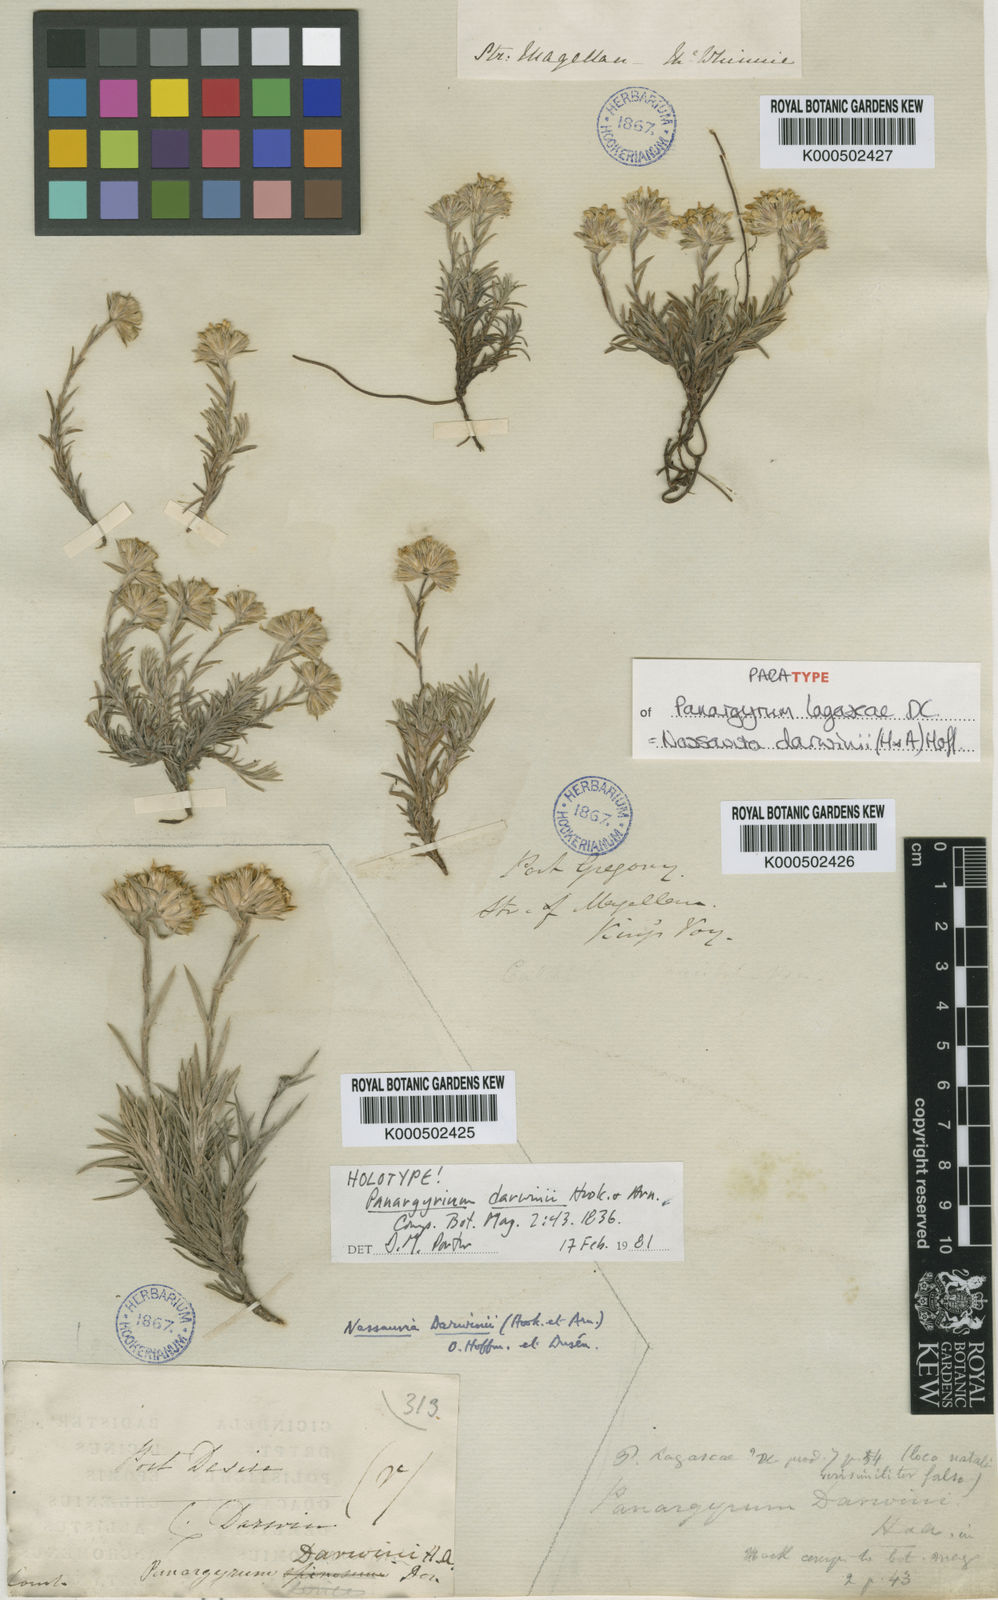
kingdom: Plantae
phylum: Tracheophyta
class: Magnoliopsida
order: Asterales
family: Asteraceae
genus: Nassauvia
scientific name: Nassauvia darwinii
